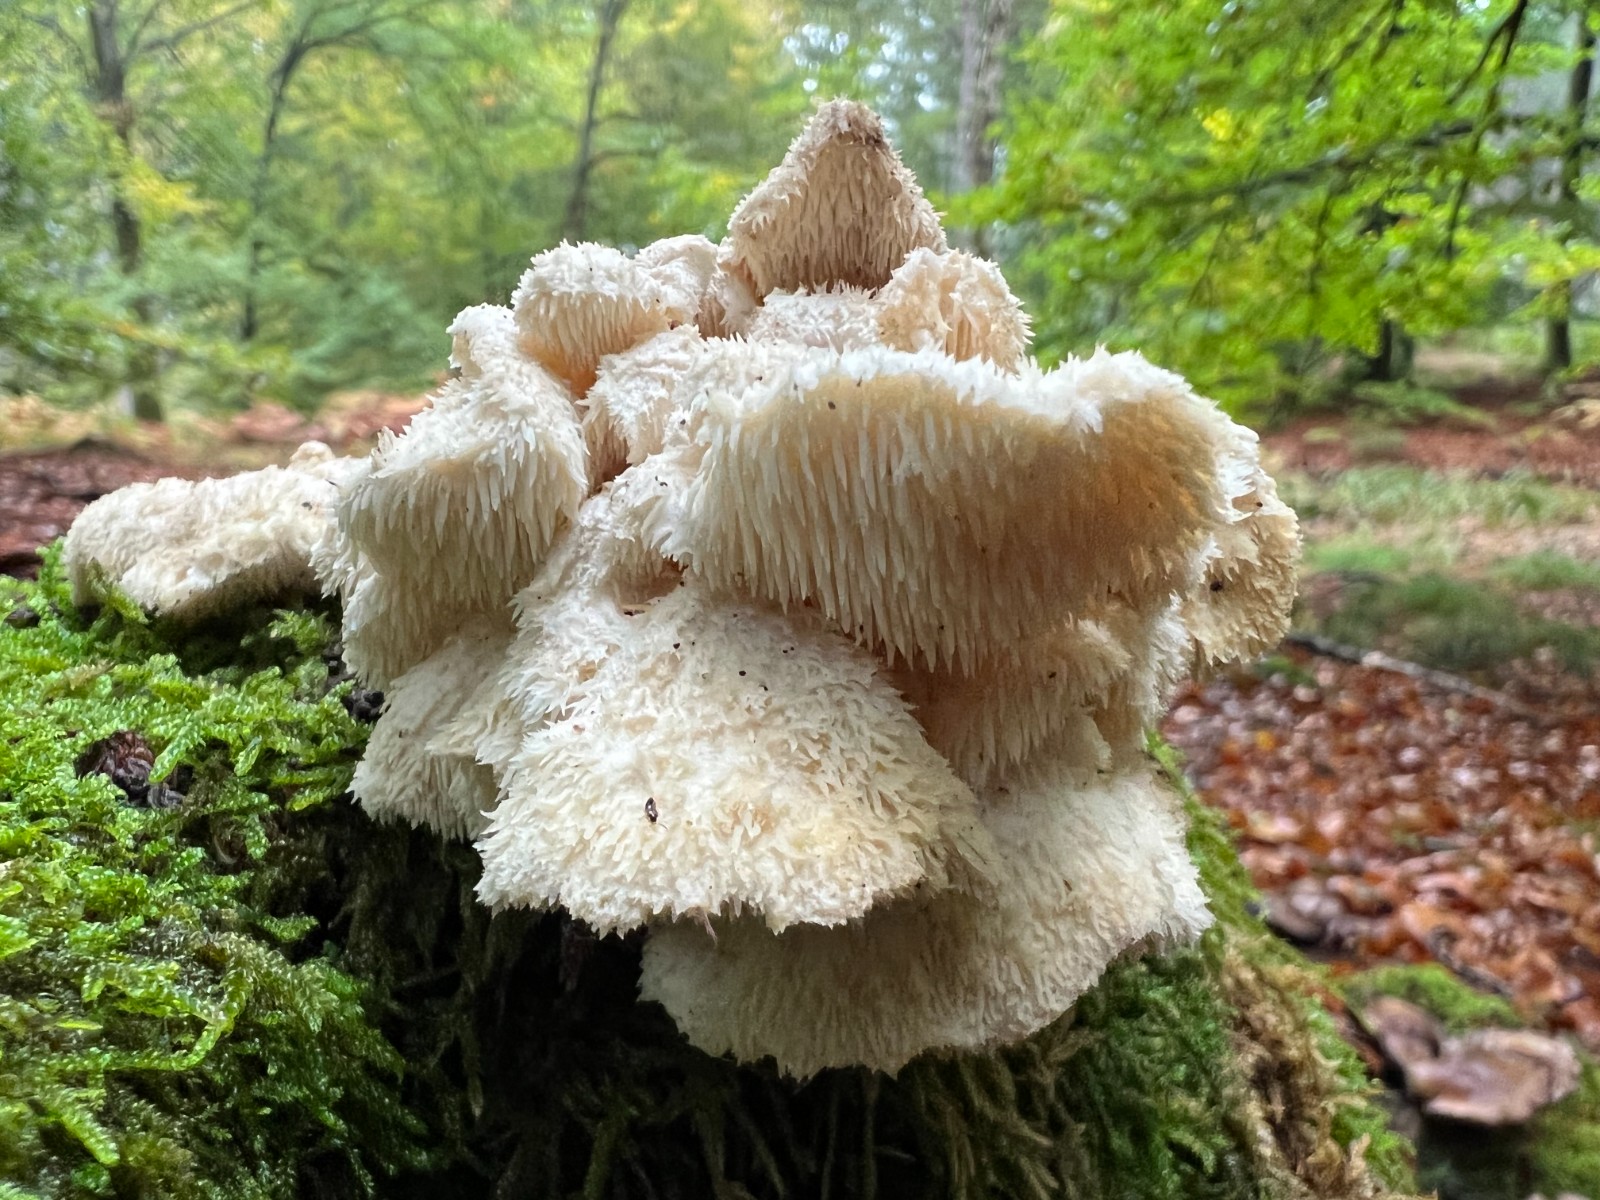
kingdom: Fungi
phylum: Basidiomycota
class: Agaricomycetes
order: Russulales
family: Hericiaceae
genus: Hericium
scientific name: Hericium cirrhatum
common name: børstepigsvamp
